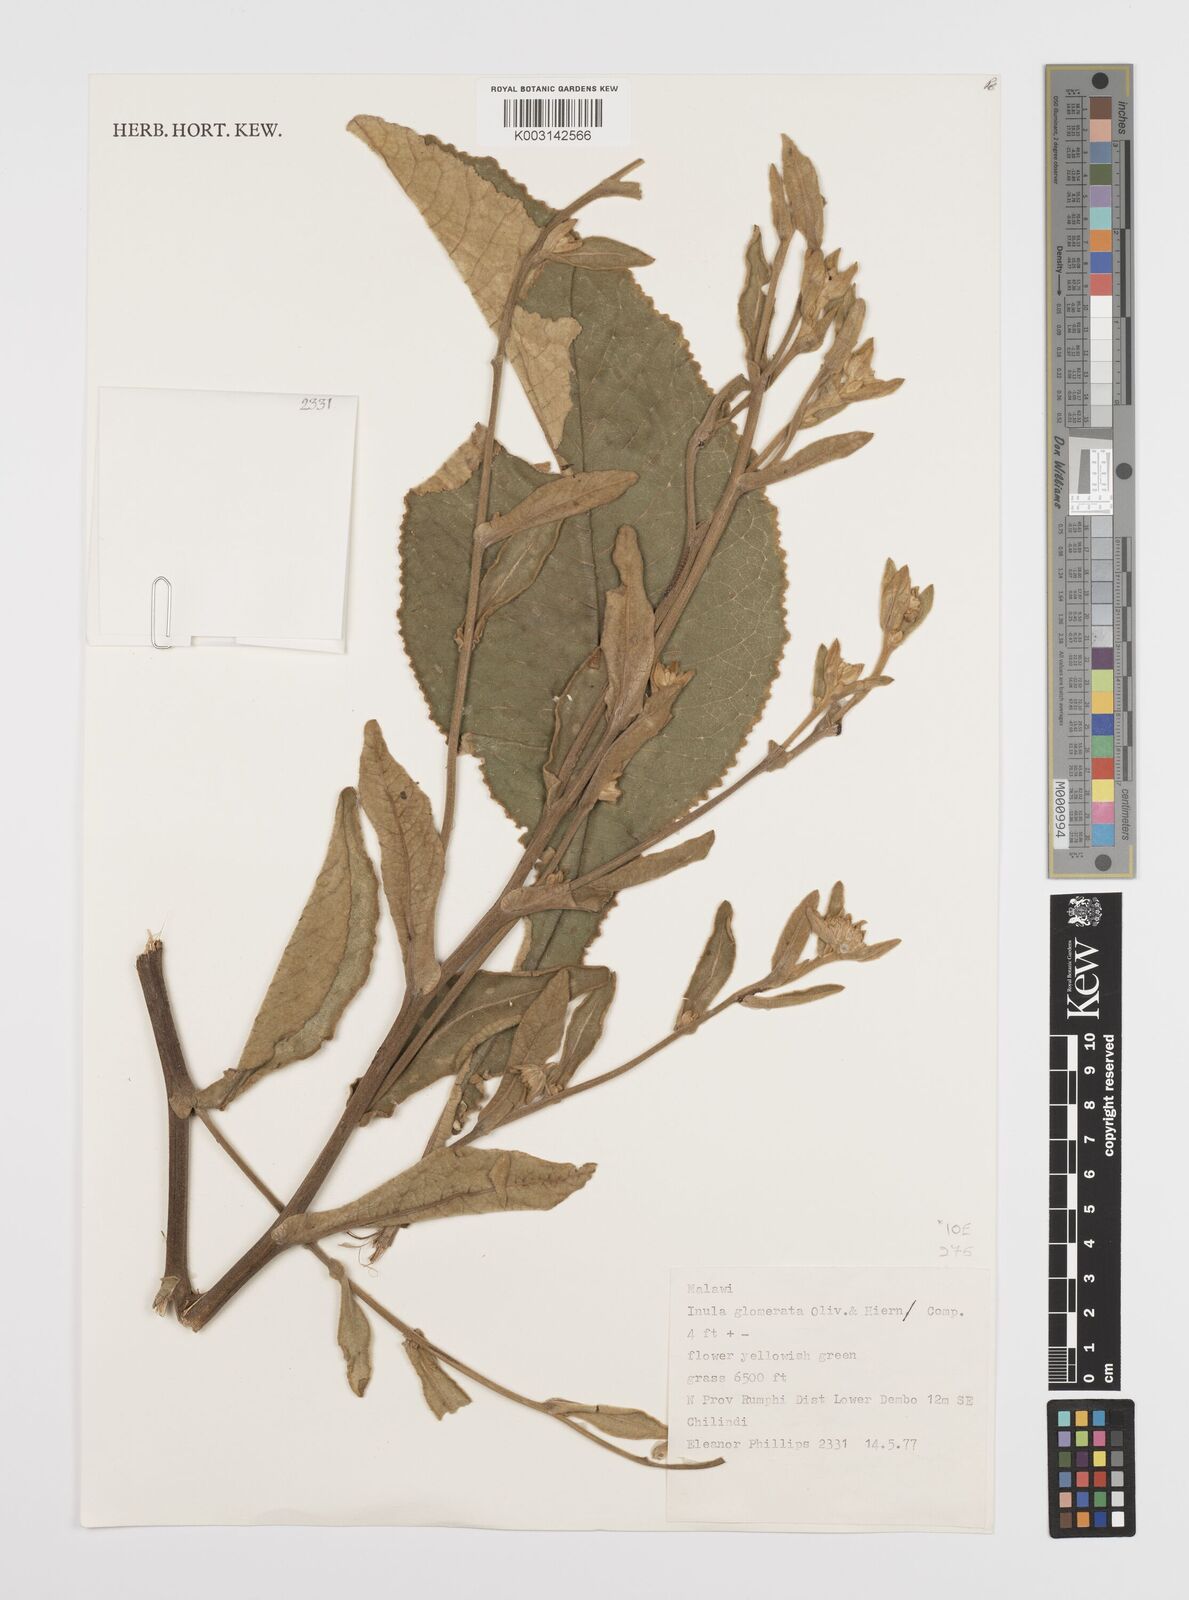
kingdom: Plantae
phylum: Tracheophyta
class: Magnoliopsida
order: Asterales
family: Asteraceae
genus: Inula
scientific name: Inula glomerata
